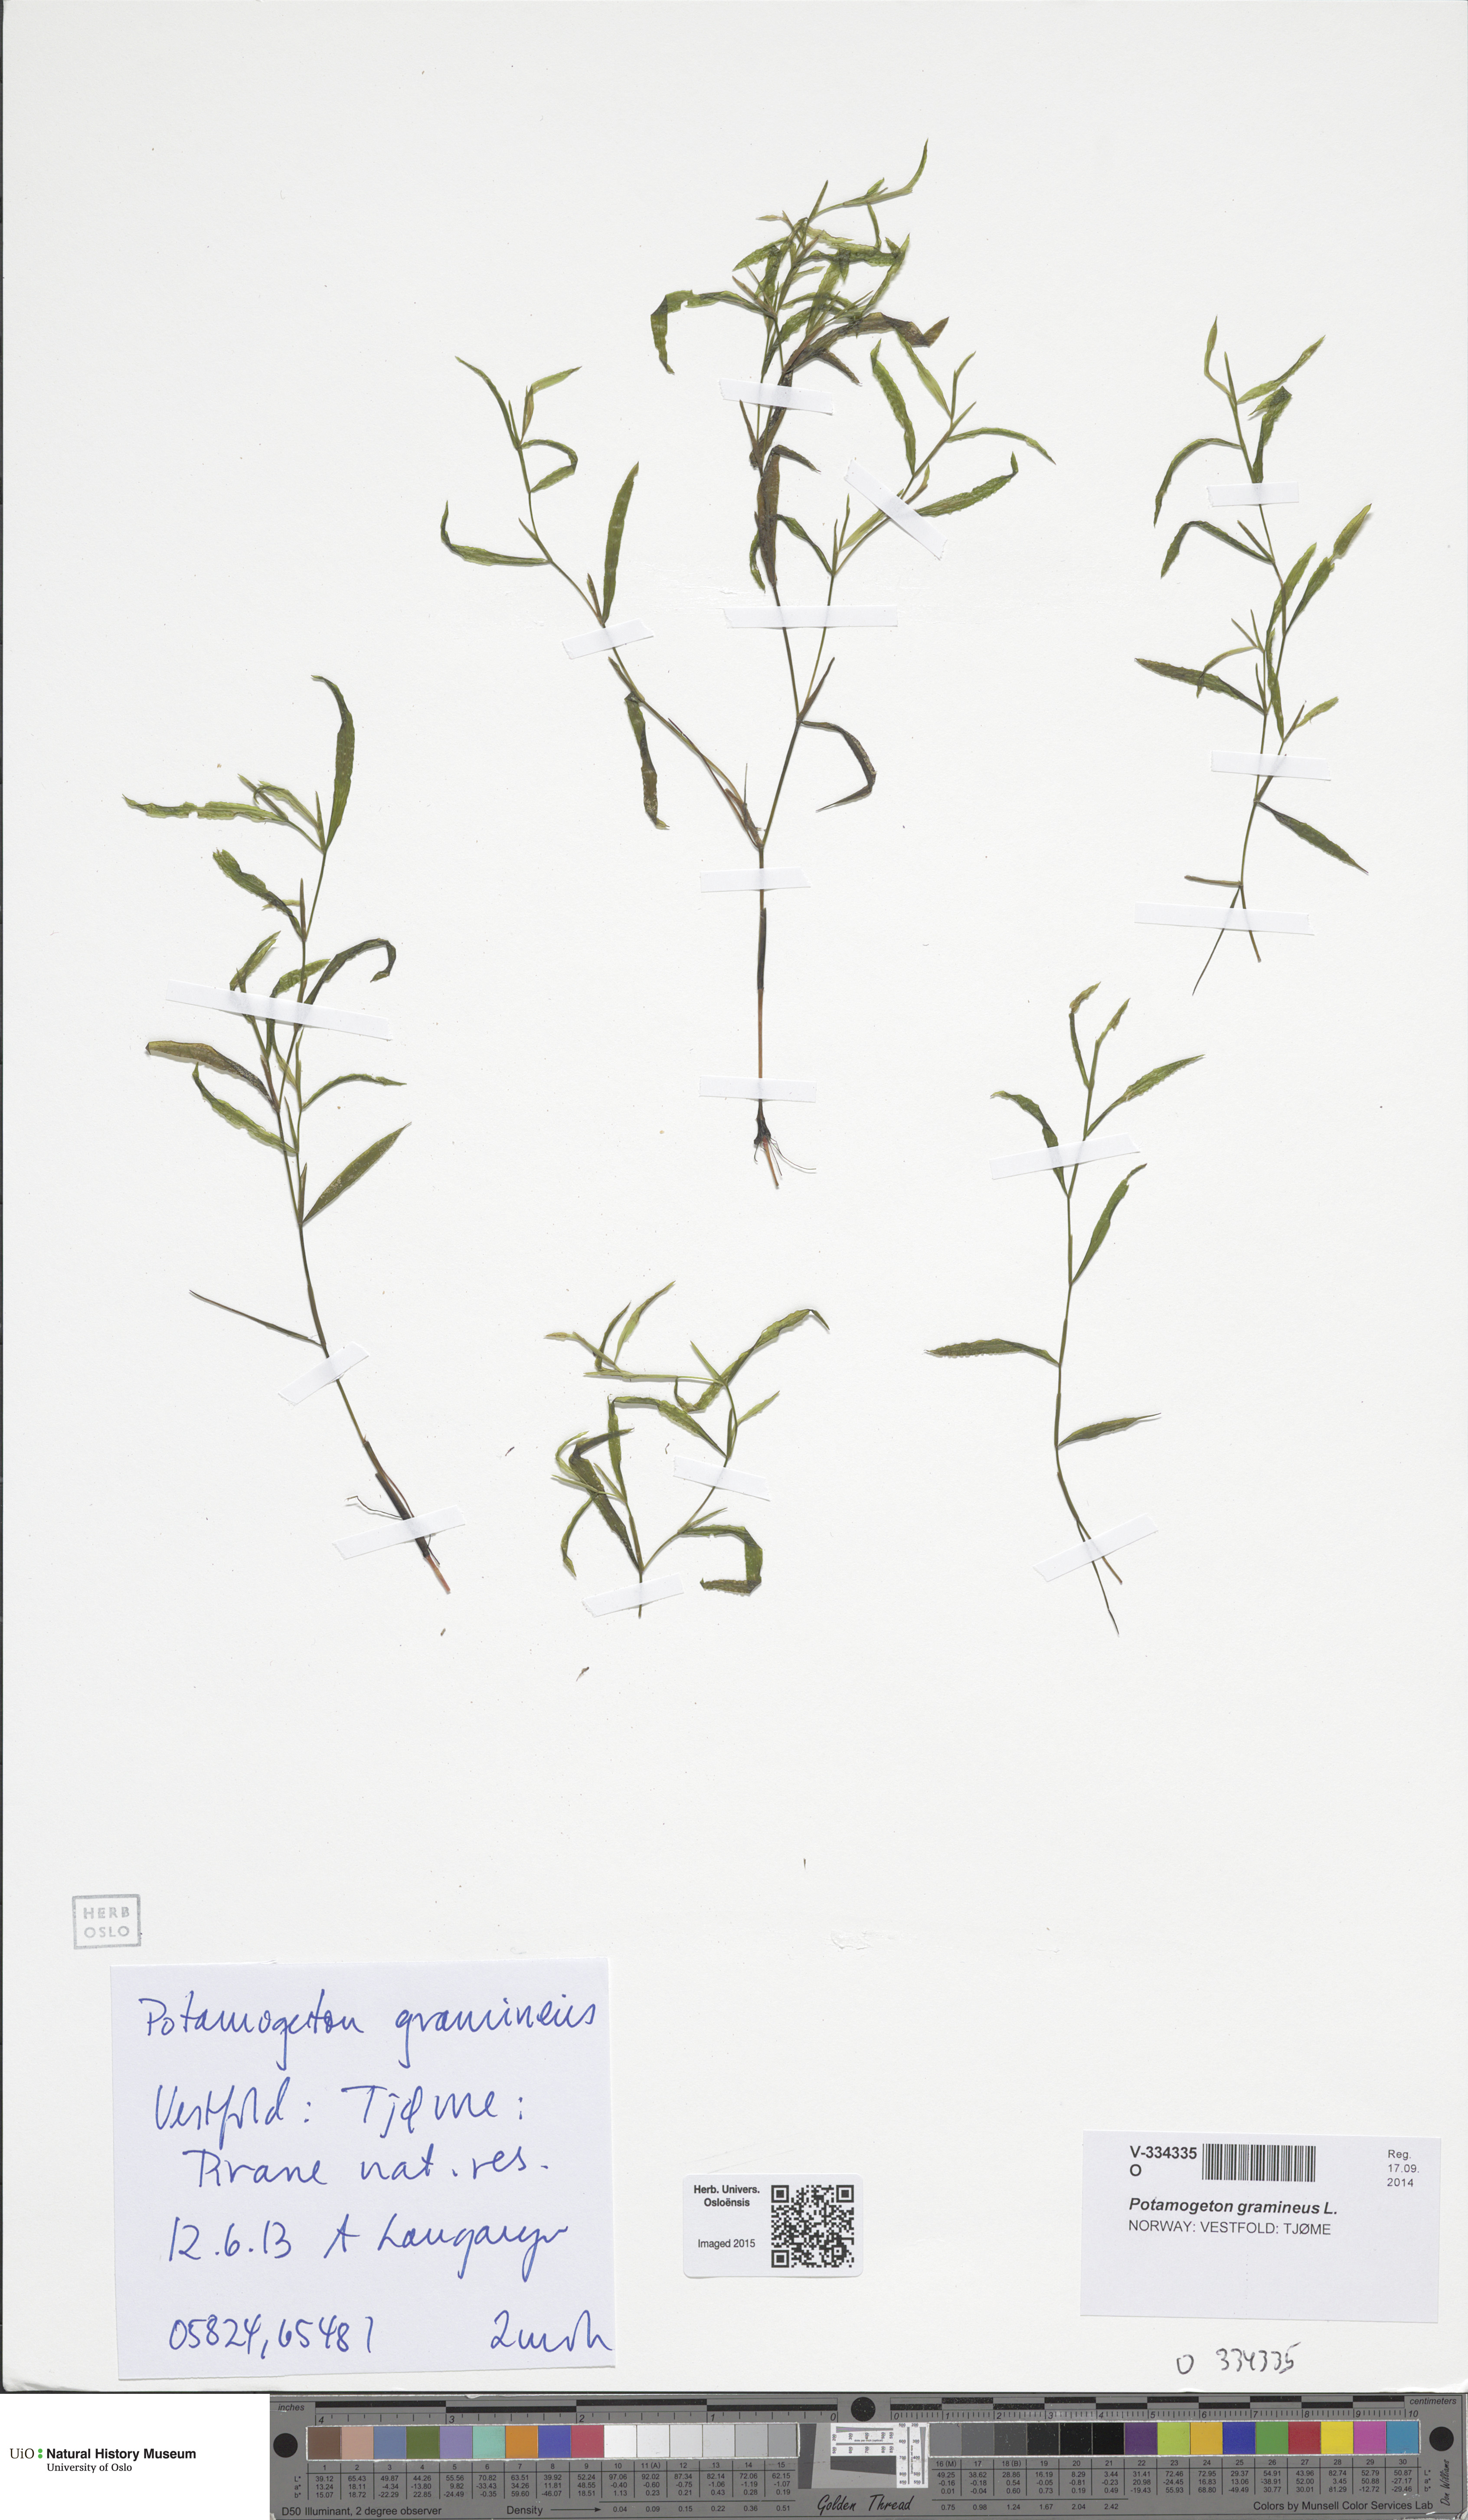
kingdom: Plantae
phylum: Tracheophyta
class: Liliopsida
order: Alismatales
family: Potamogetonaceae
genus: Potamogeton
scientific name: Potamogeton gramineus
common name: Various-leaved pondweed
